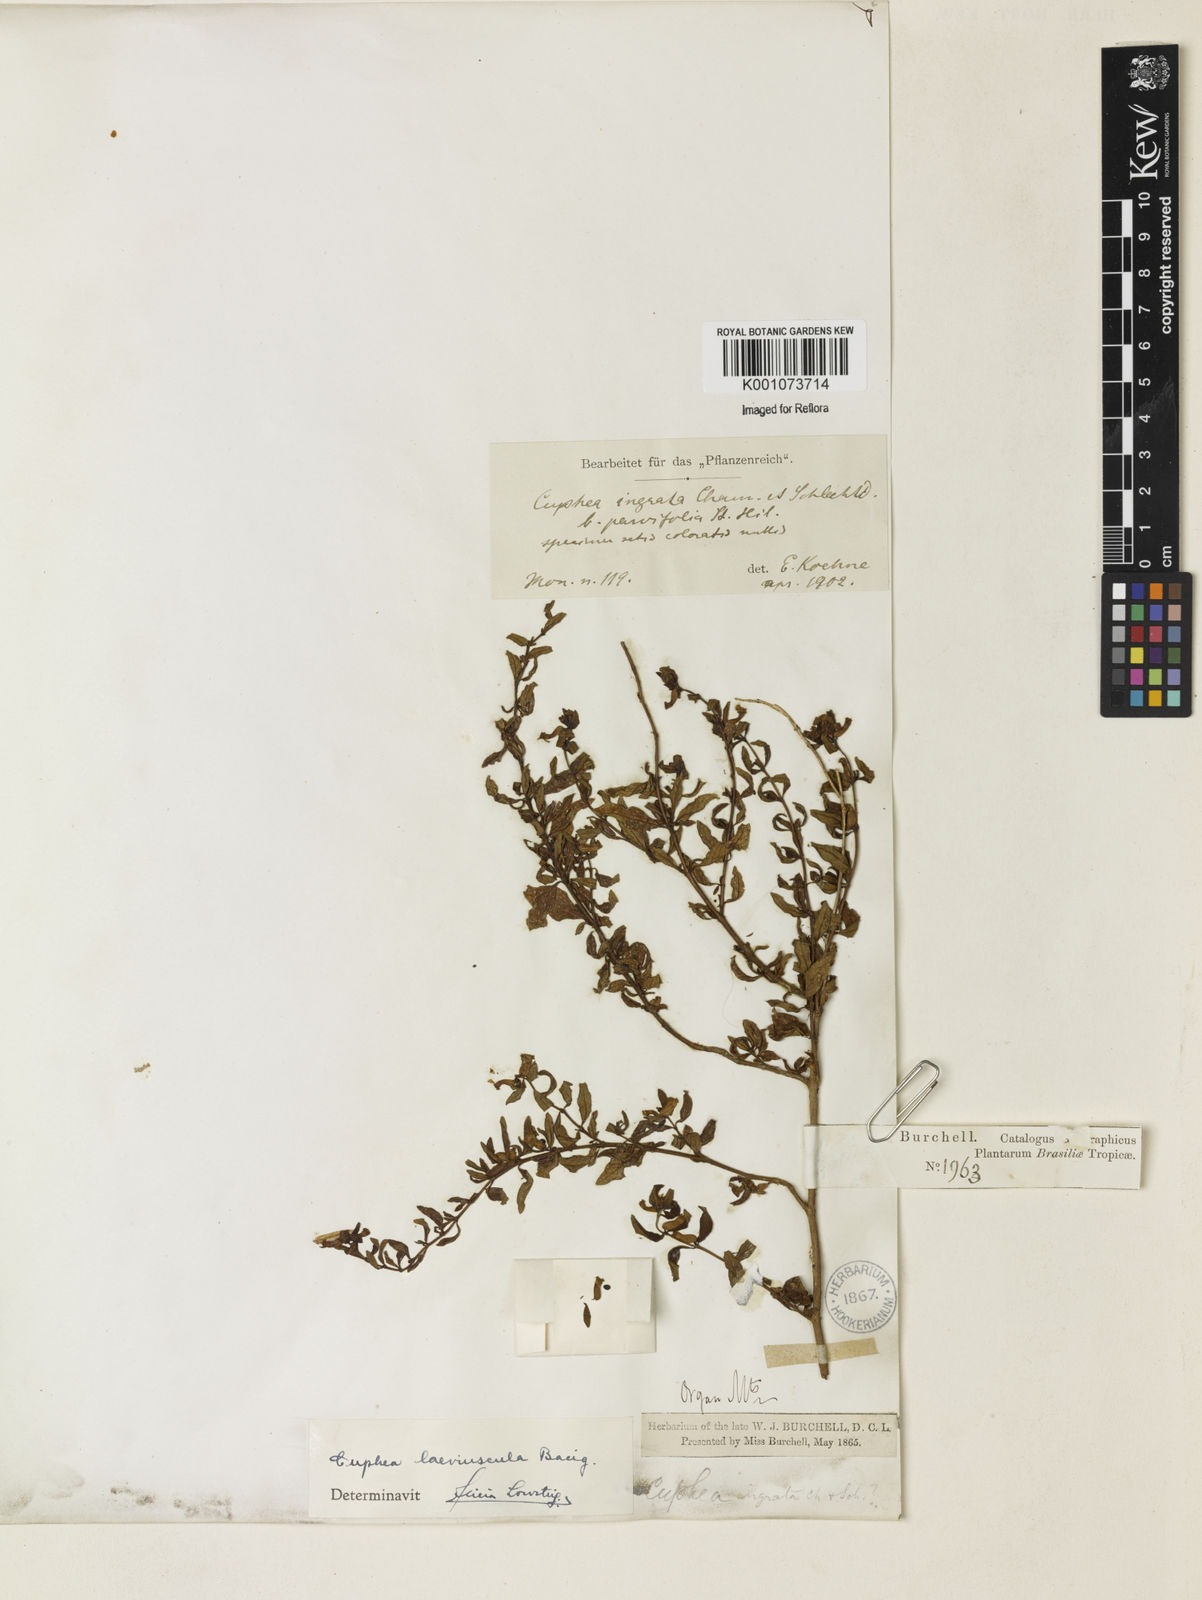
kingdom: Plantae
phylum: Tracheophyta
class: Magnoliopsida
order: Myrtales
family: Lythraceae
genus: Cuphea
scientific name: Cuphea
